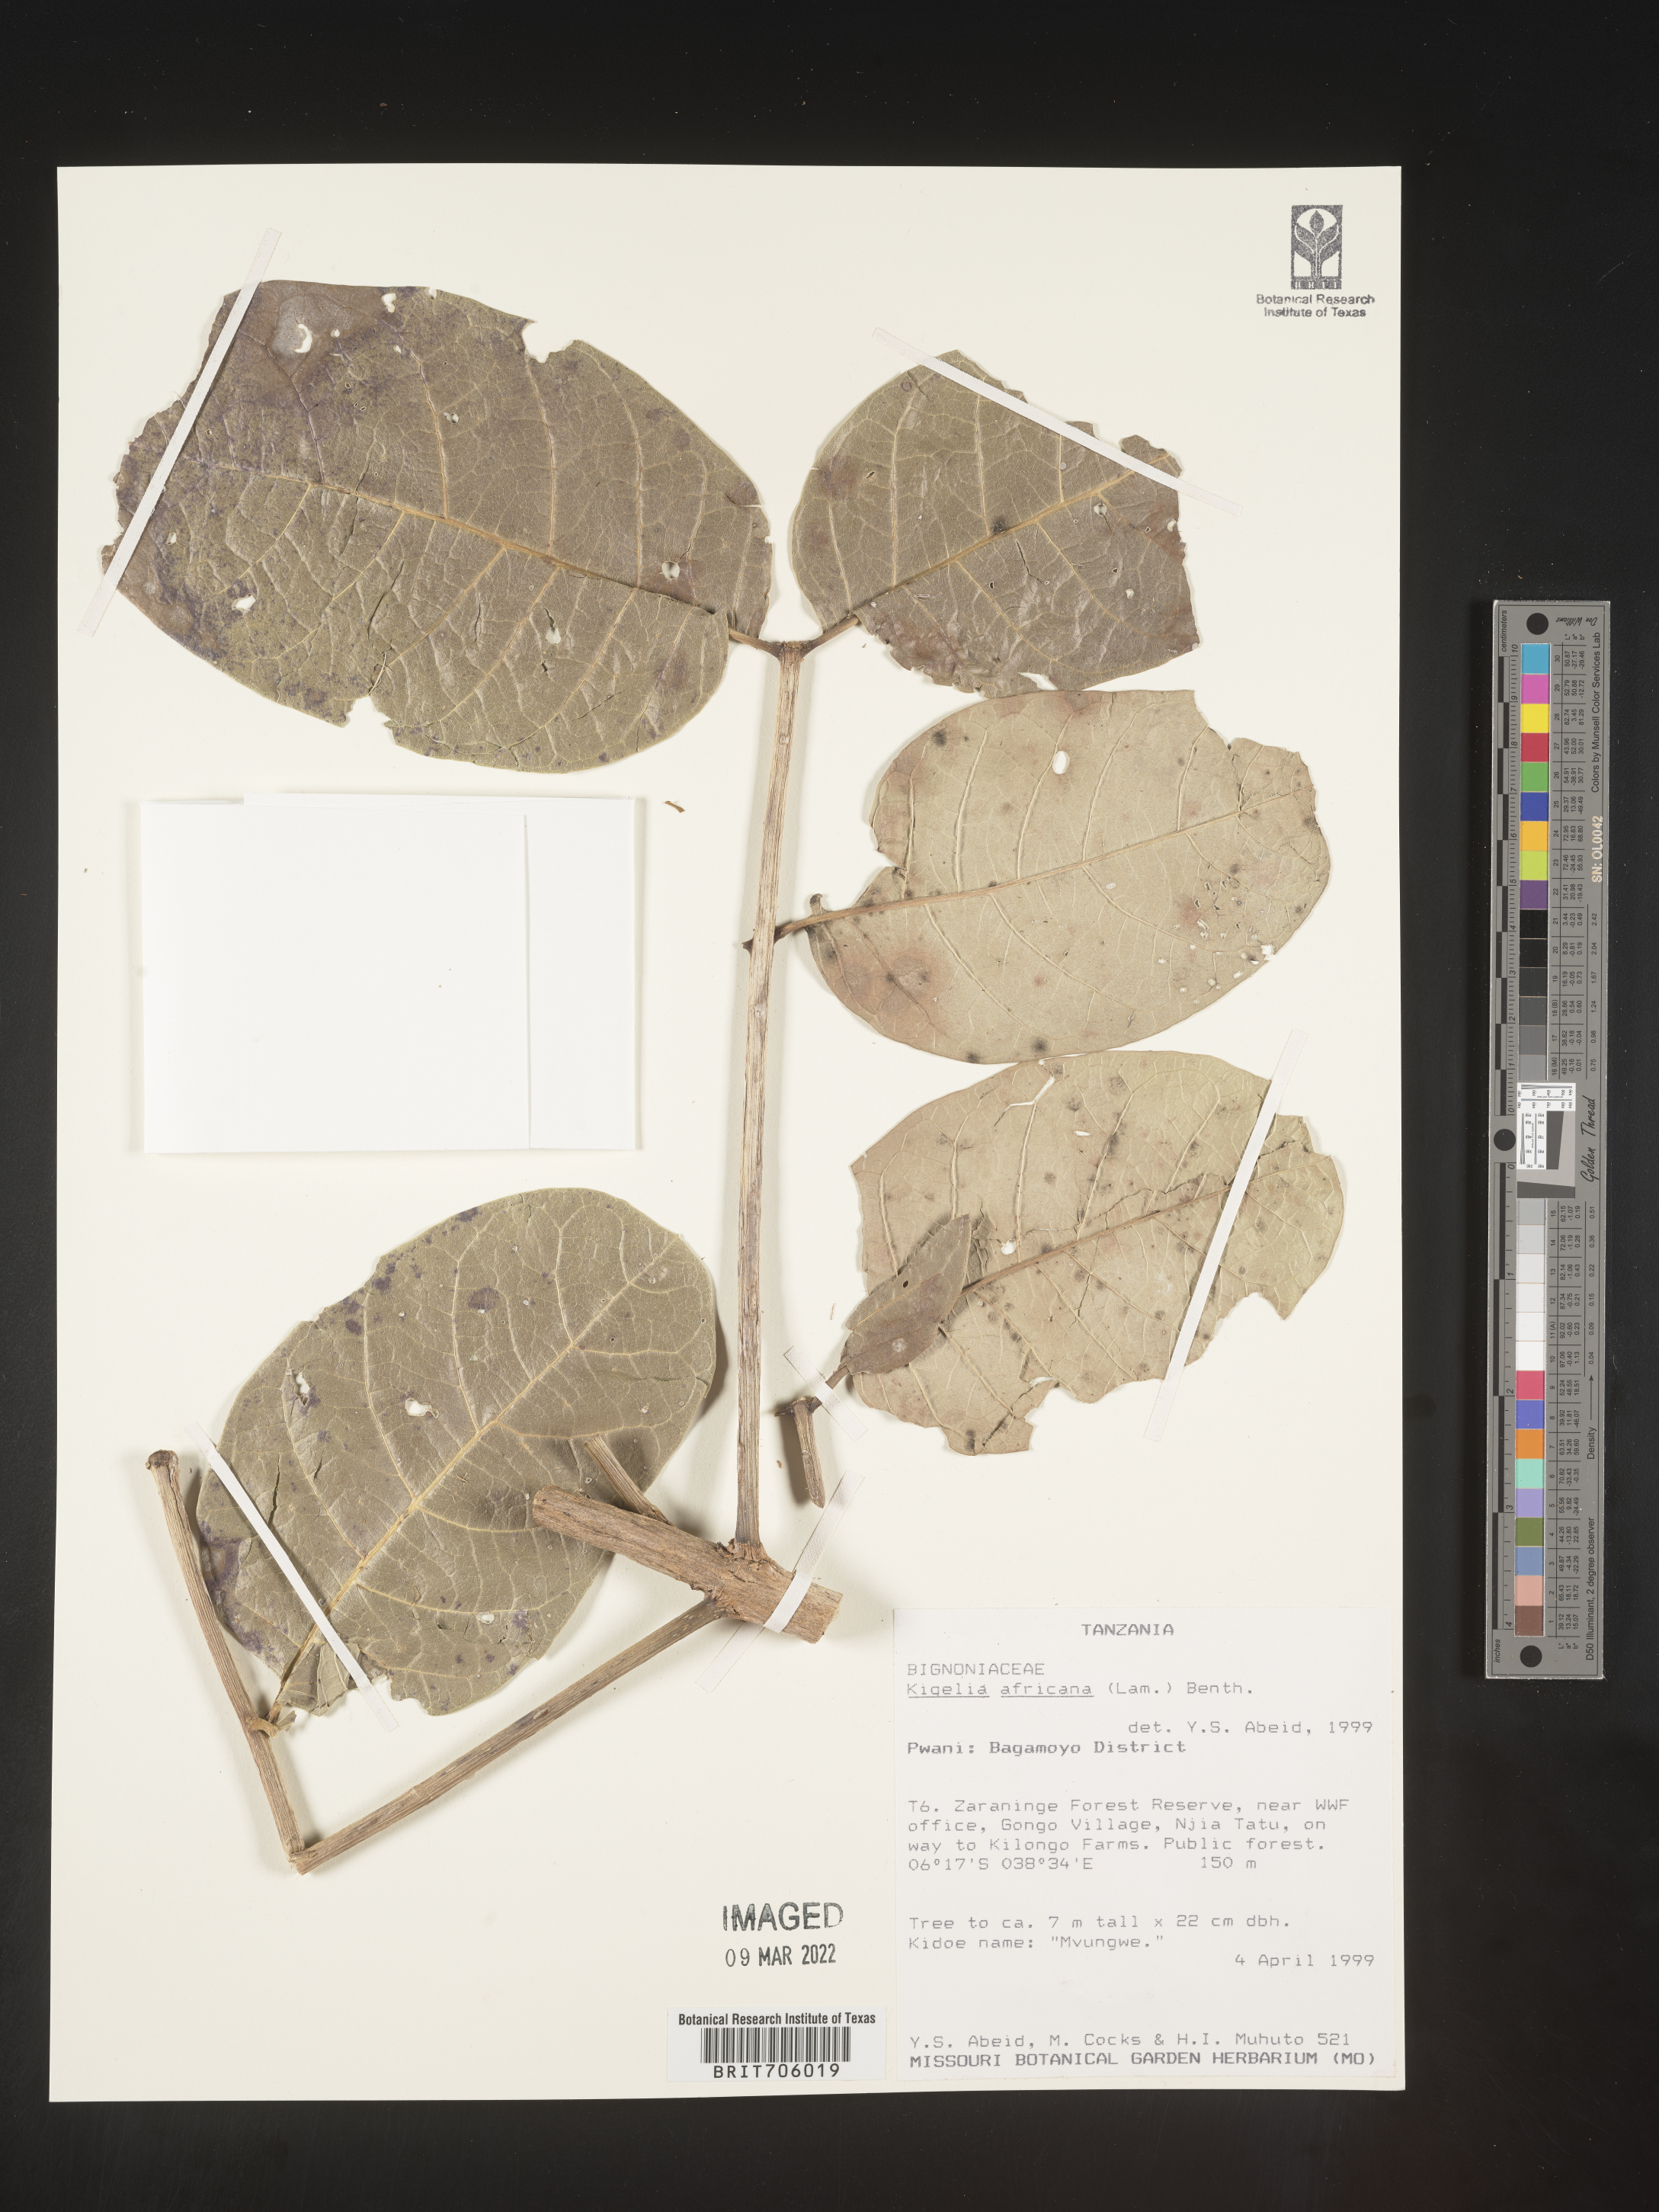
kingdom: Plantae
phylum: Tracheophyta
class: Magnoliopsida
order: Lamiales
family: Bignoniaceae
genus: Kigelia
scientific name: Kigelia
